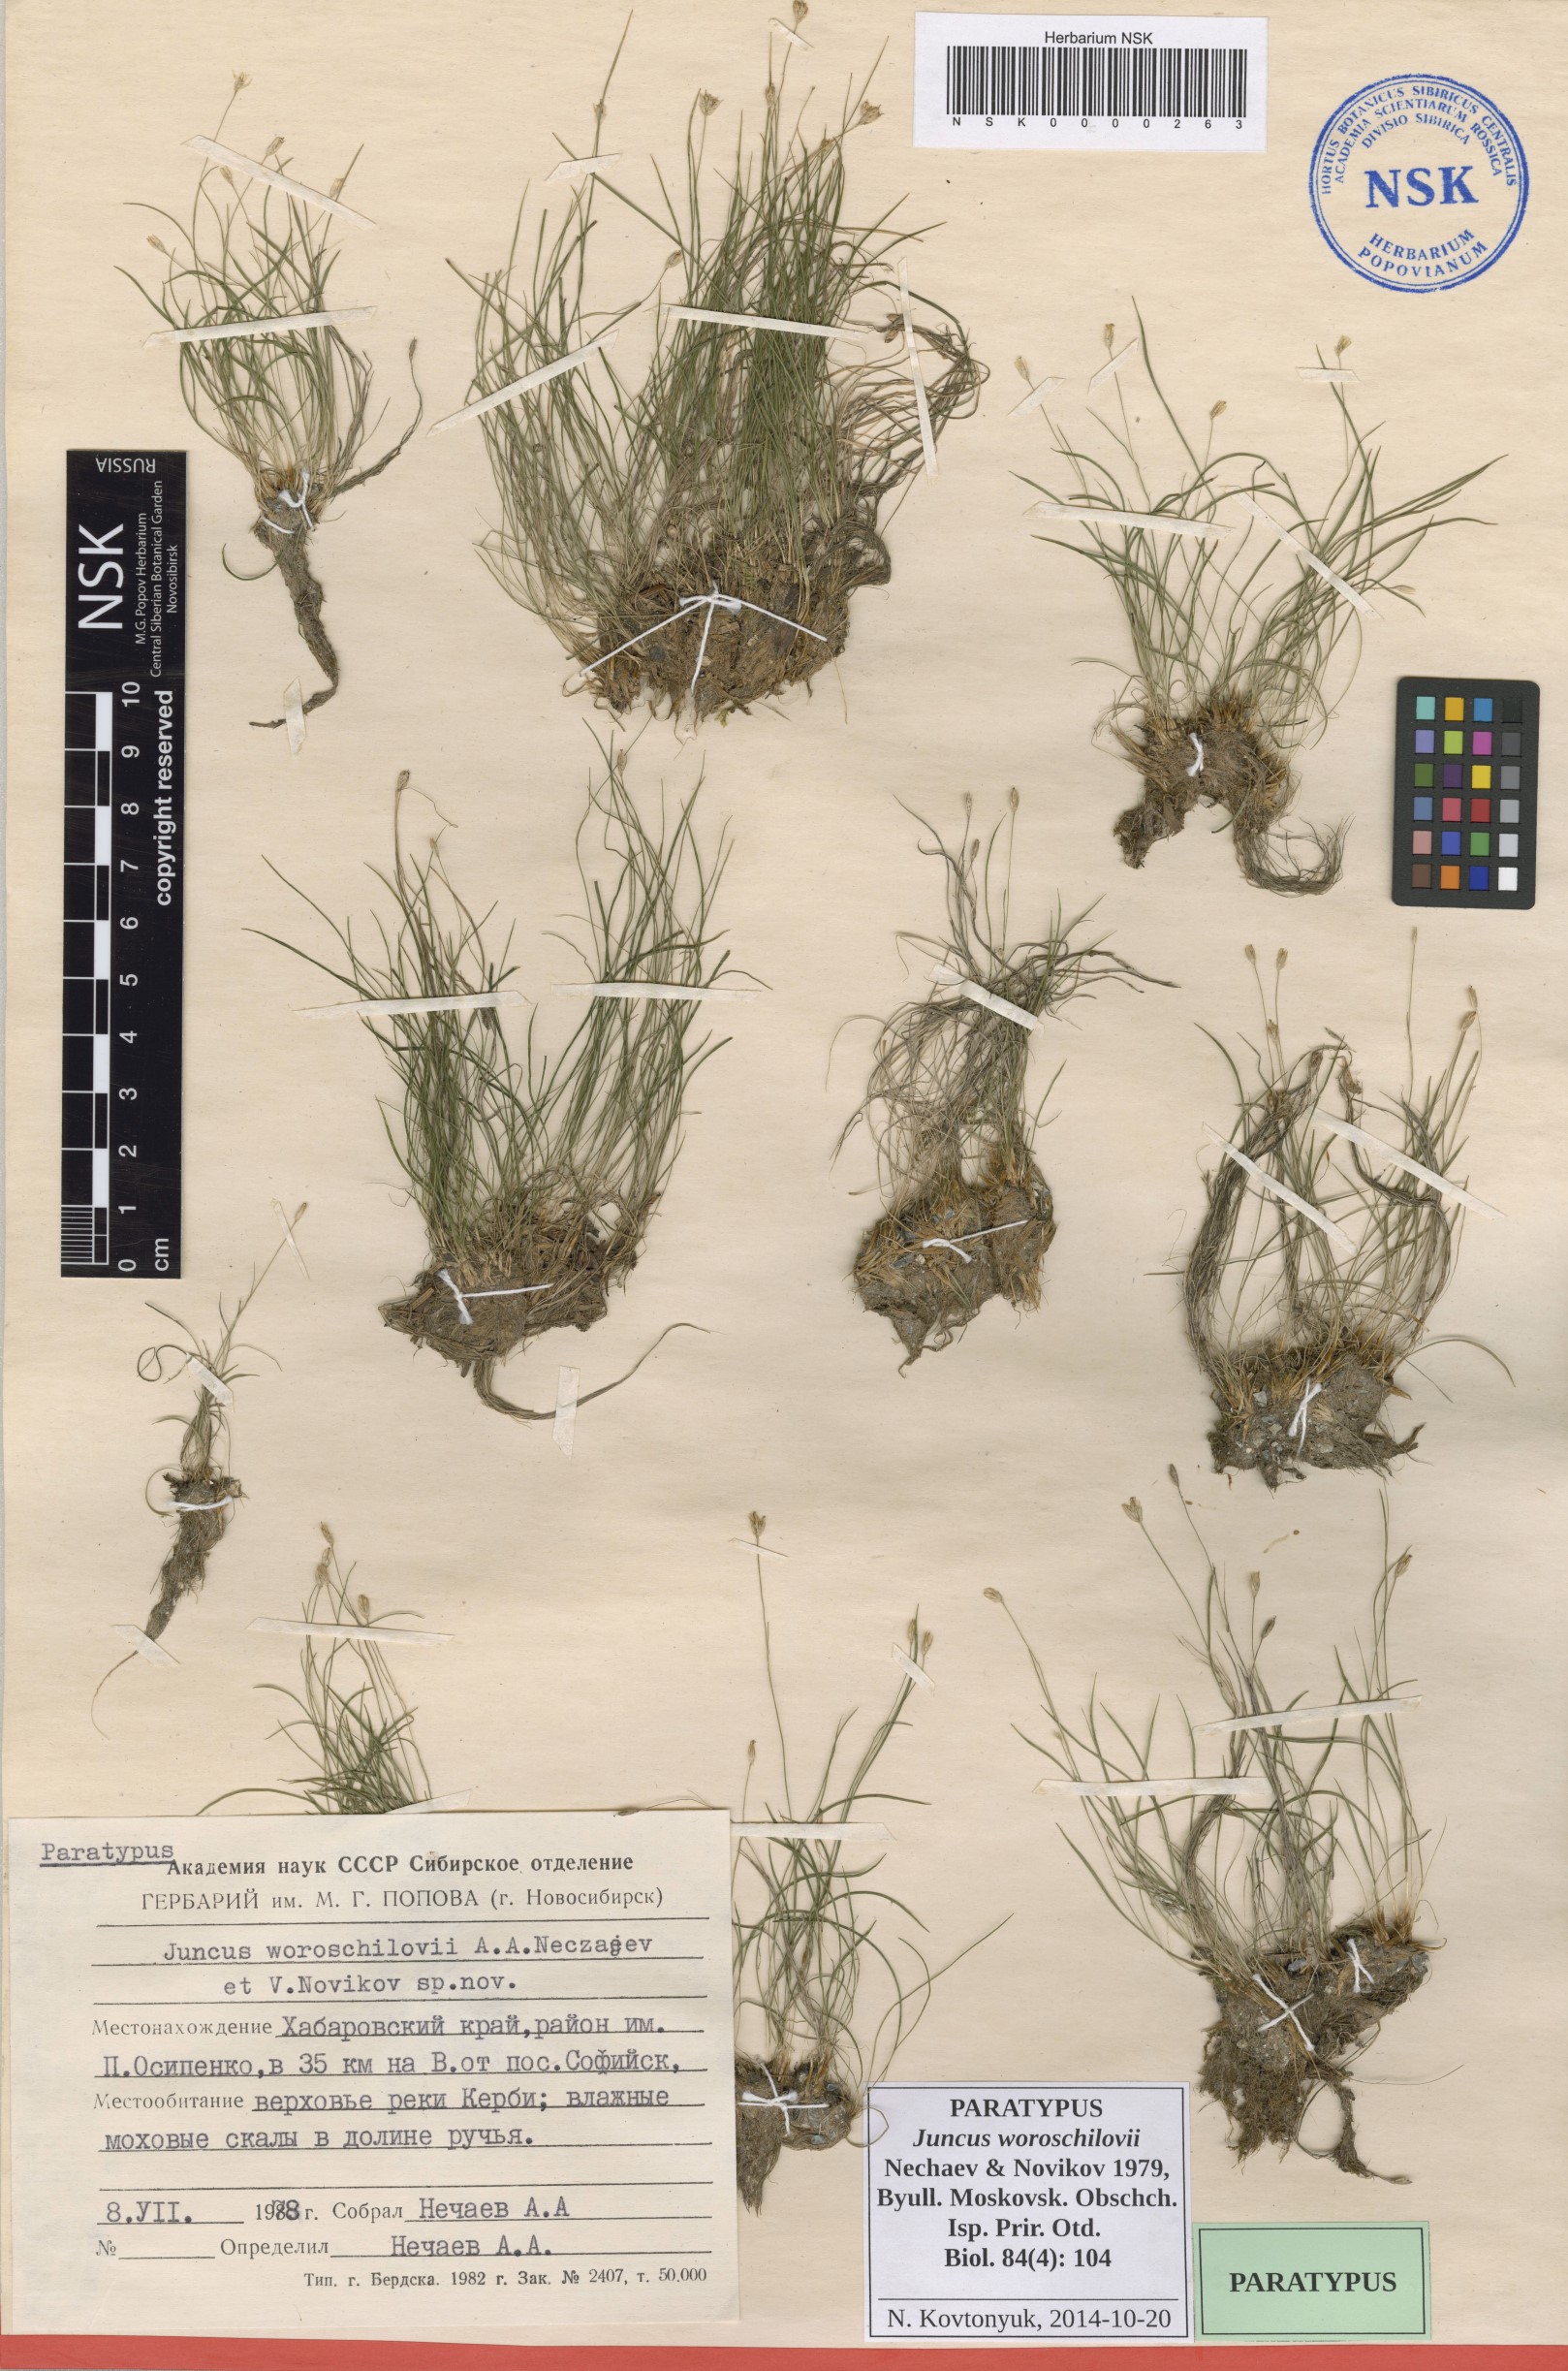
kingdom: Plantae
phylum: Tracheophyta
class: Liliopsida
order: Poales
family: Juncaceae
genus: Juncus
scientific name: Juncus potaninii
